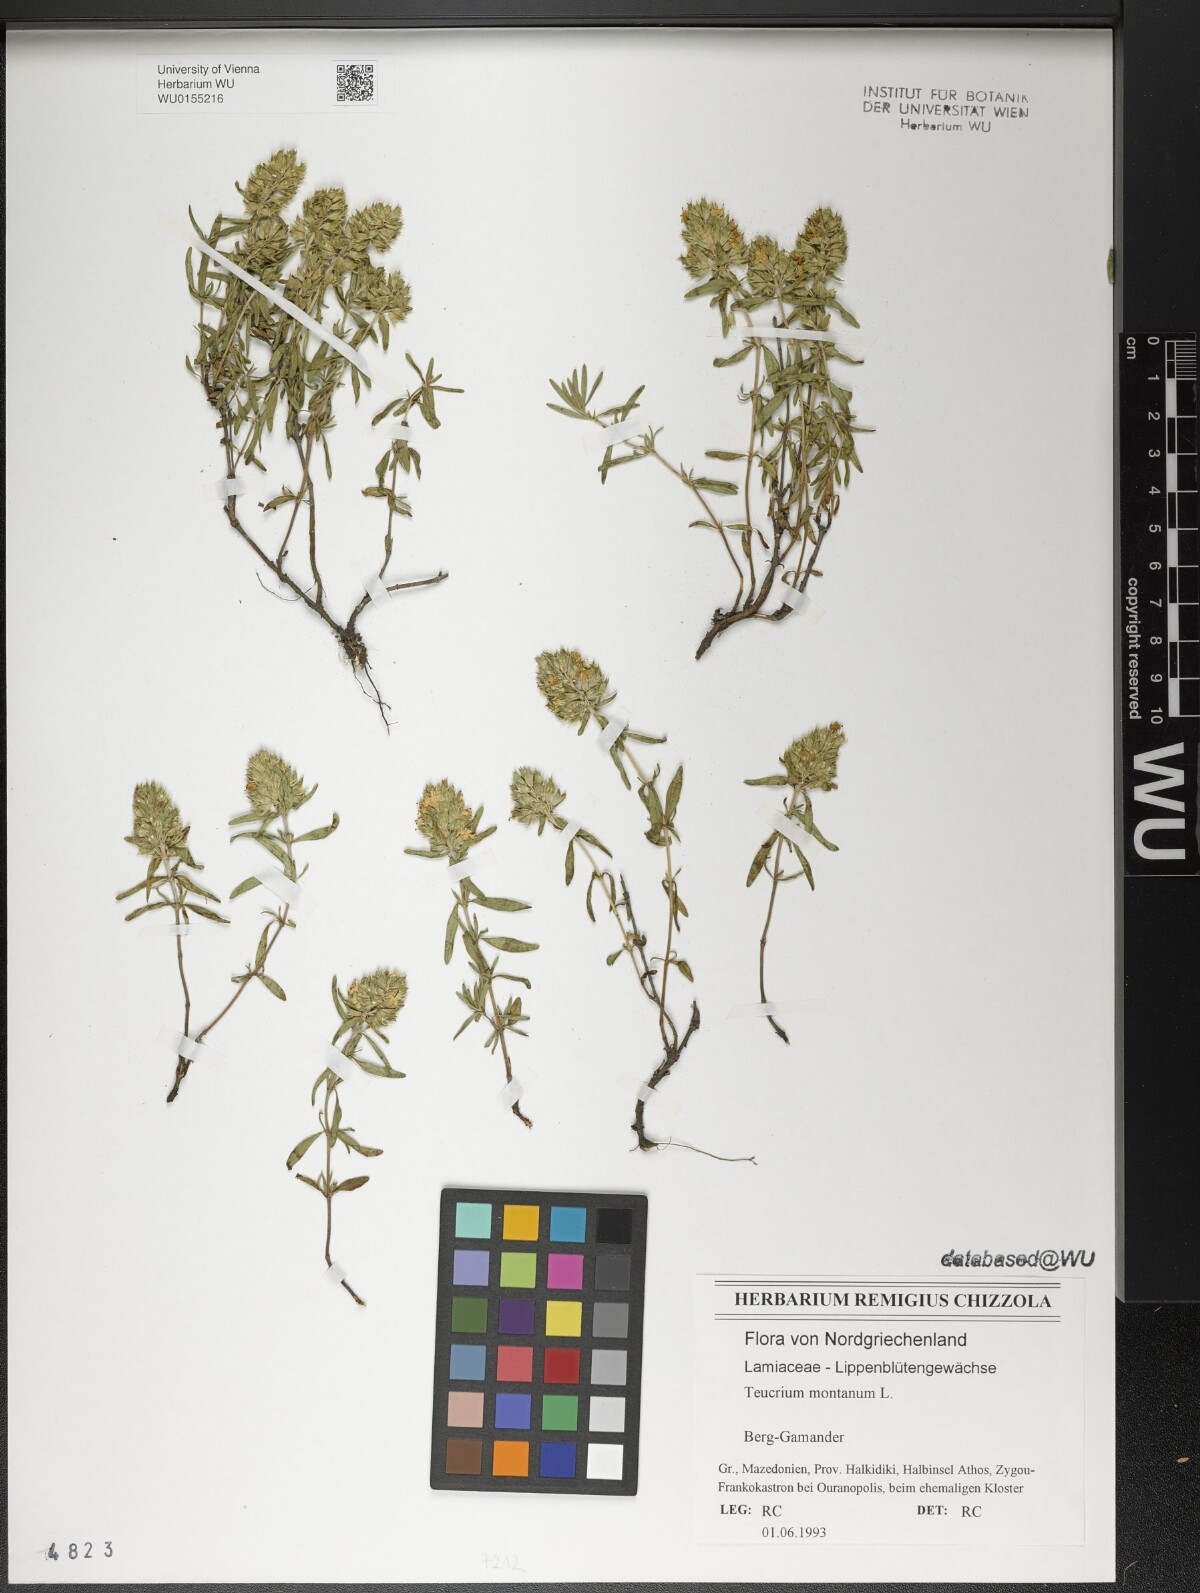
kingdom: Plantae
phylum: Tracheophyta
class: Magnoliopsida
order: Lamiales
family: Lamiaceae
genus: Teucrium
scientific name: Teucrium montanum
